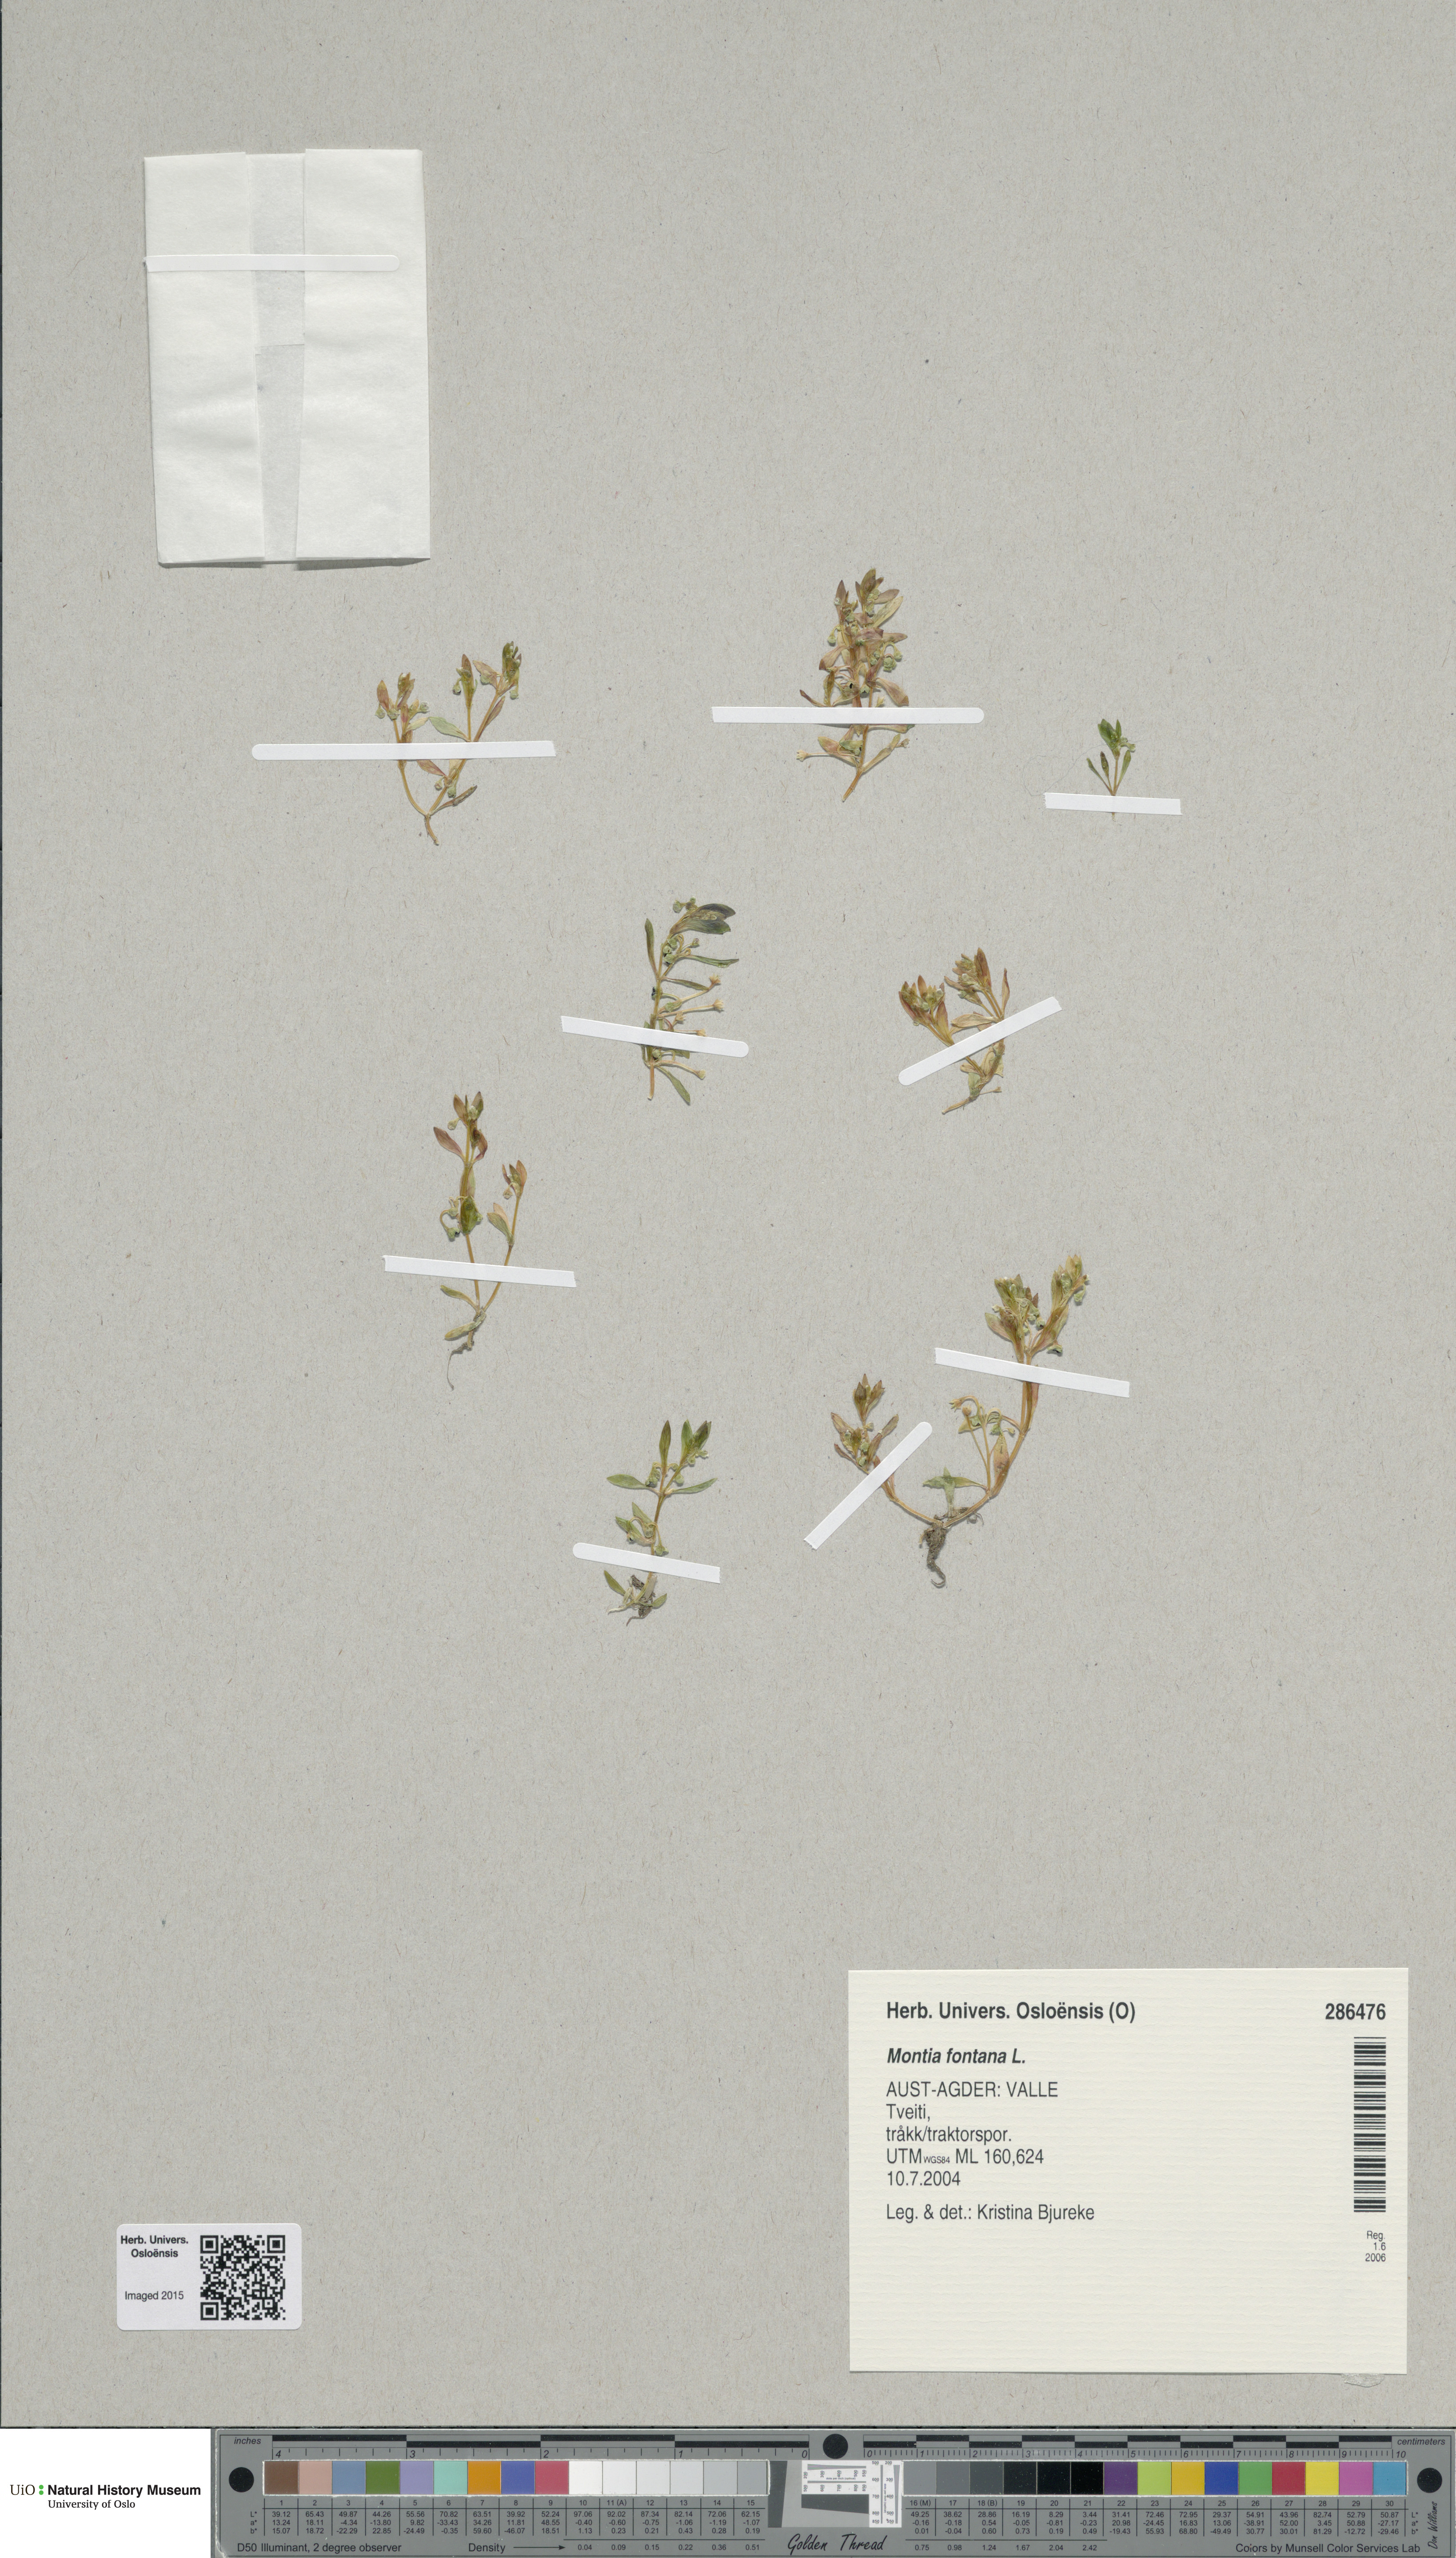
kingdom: Plantae
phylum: Tracheophyta
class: Magnoliopsida
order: Caryophyllales
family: Montiaceae
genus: Montia
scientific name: Montia fontana
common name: Blinks
